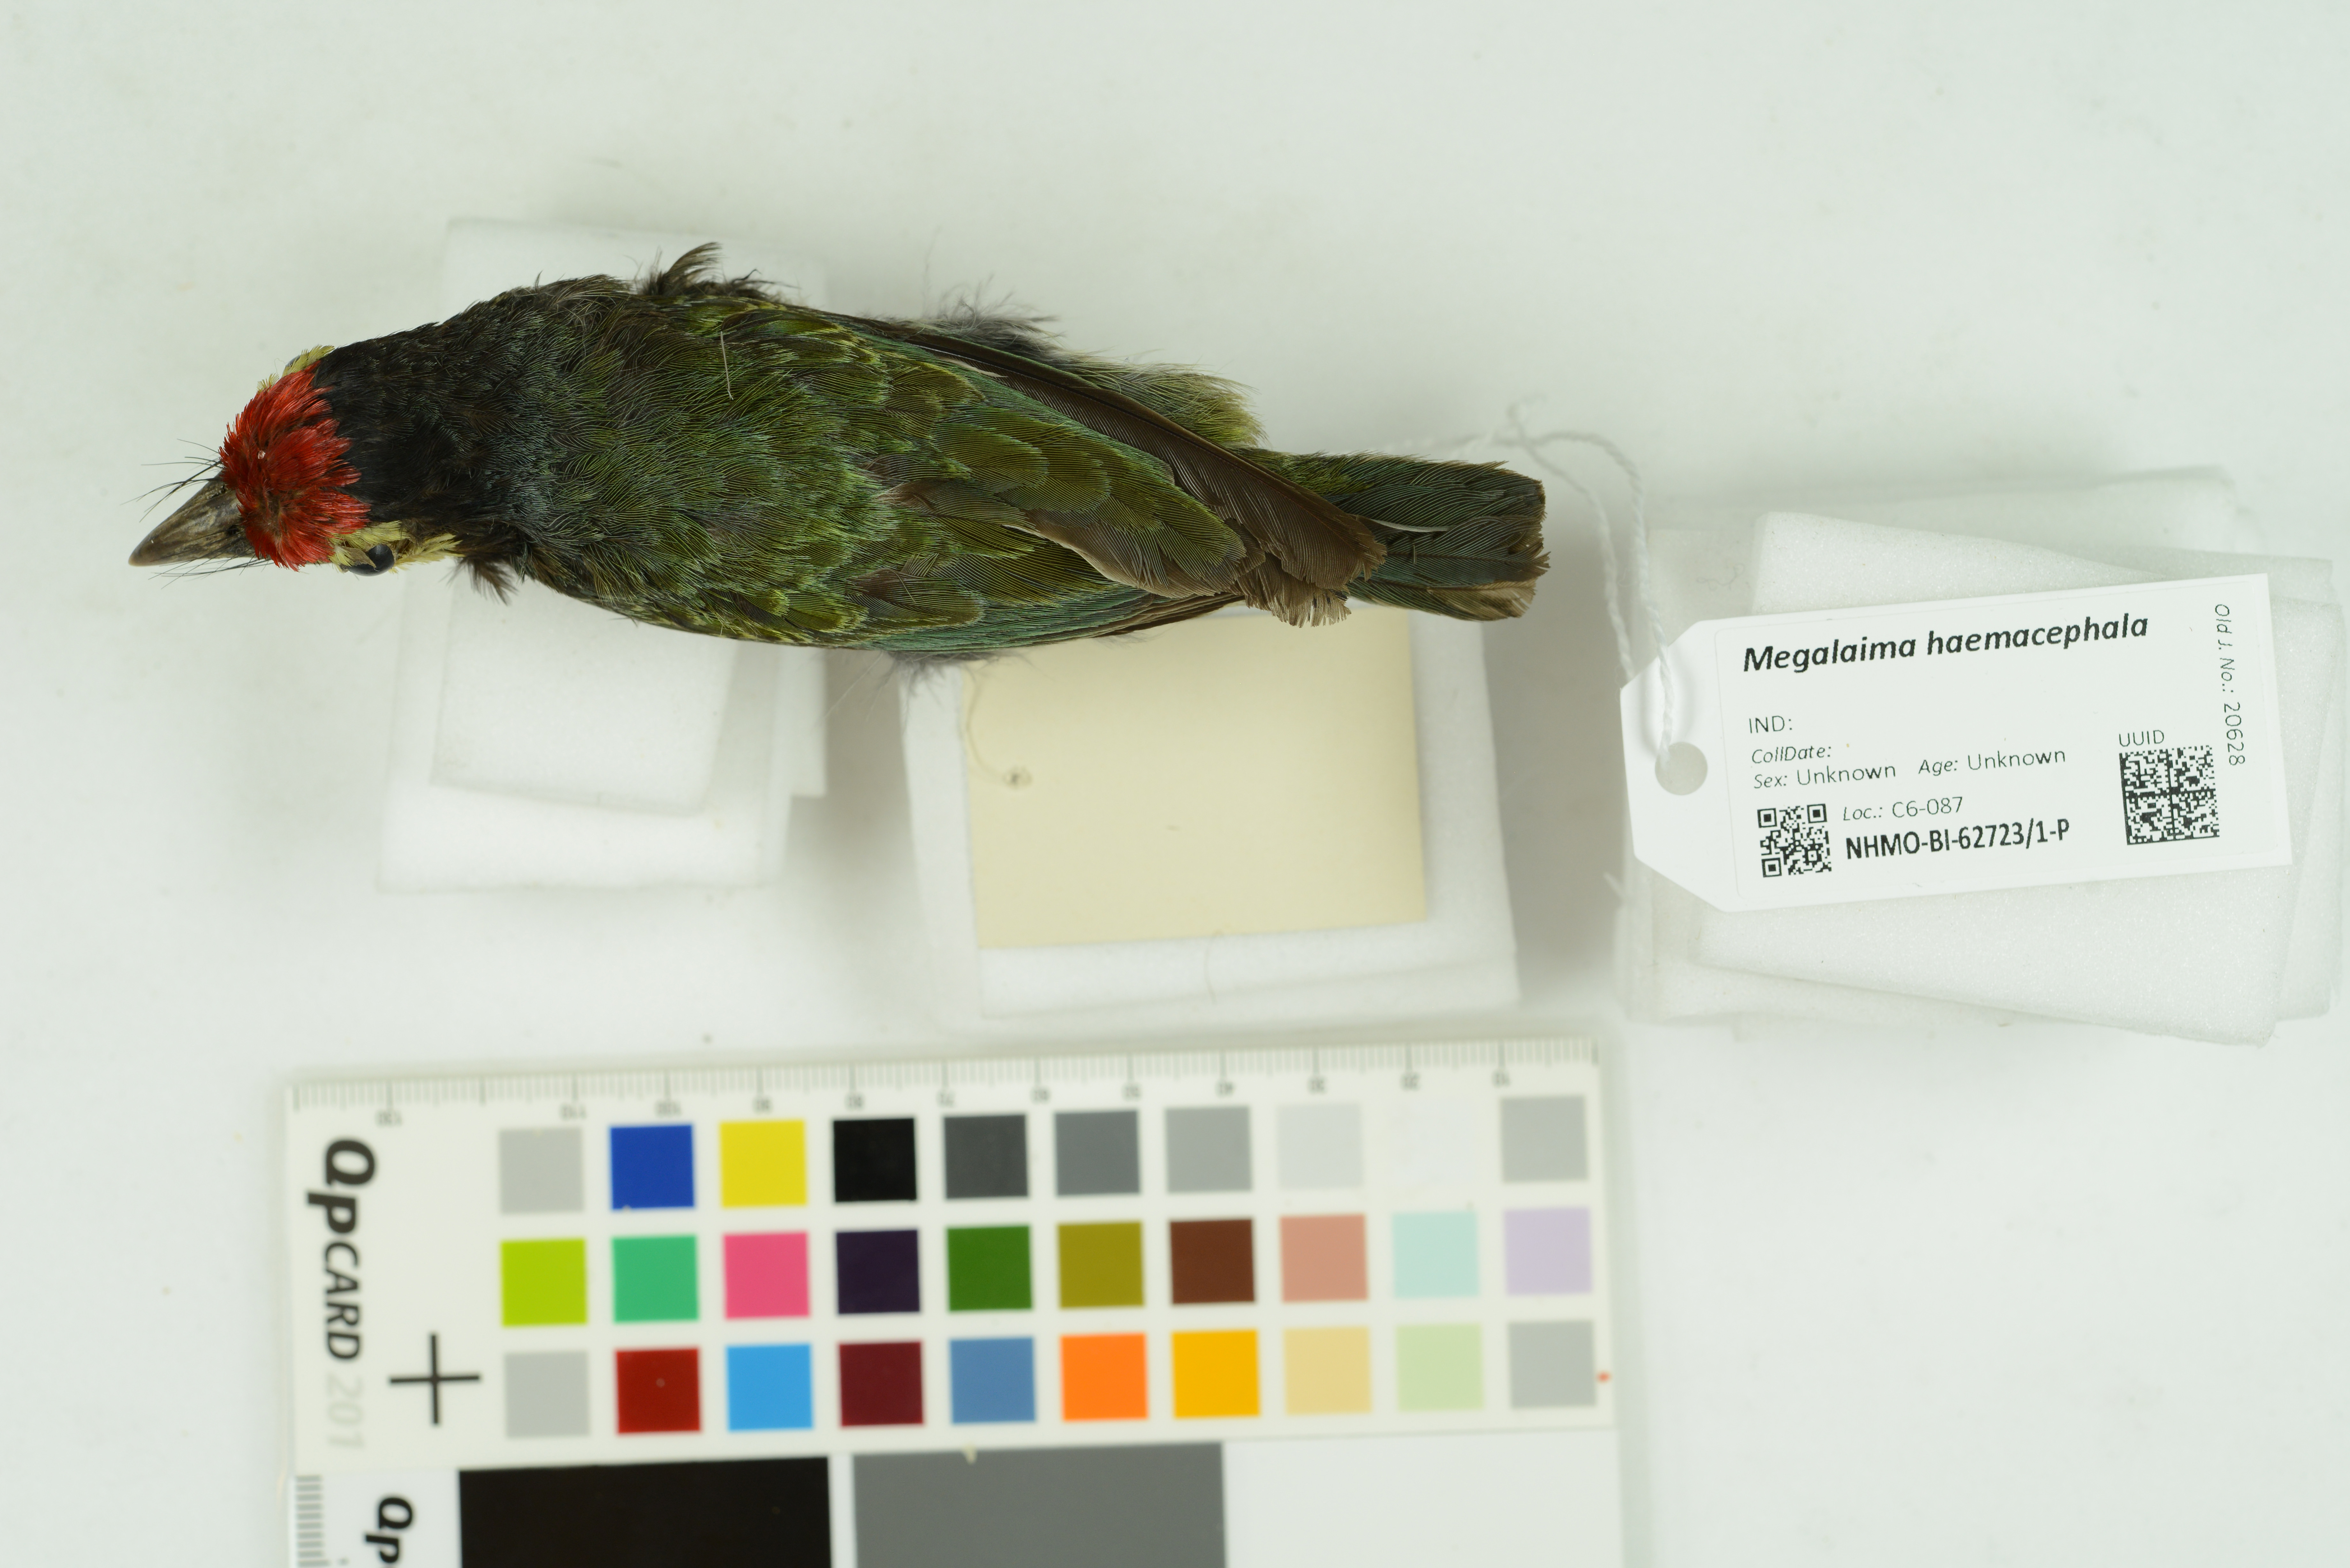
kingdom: Animalia
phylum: Chordata
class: Aves
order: Piciformes
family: Megalaimidae
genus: Psilopogon
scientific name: Psilopogon haemacephalus
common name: Coppersmith barbet
